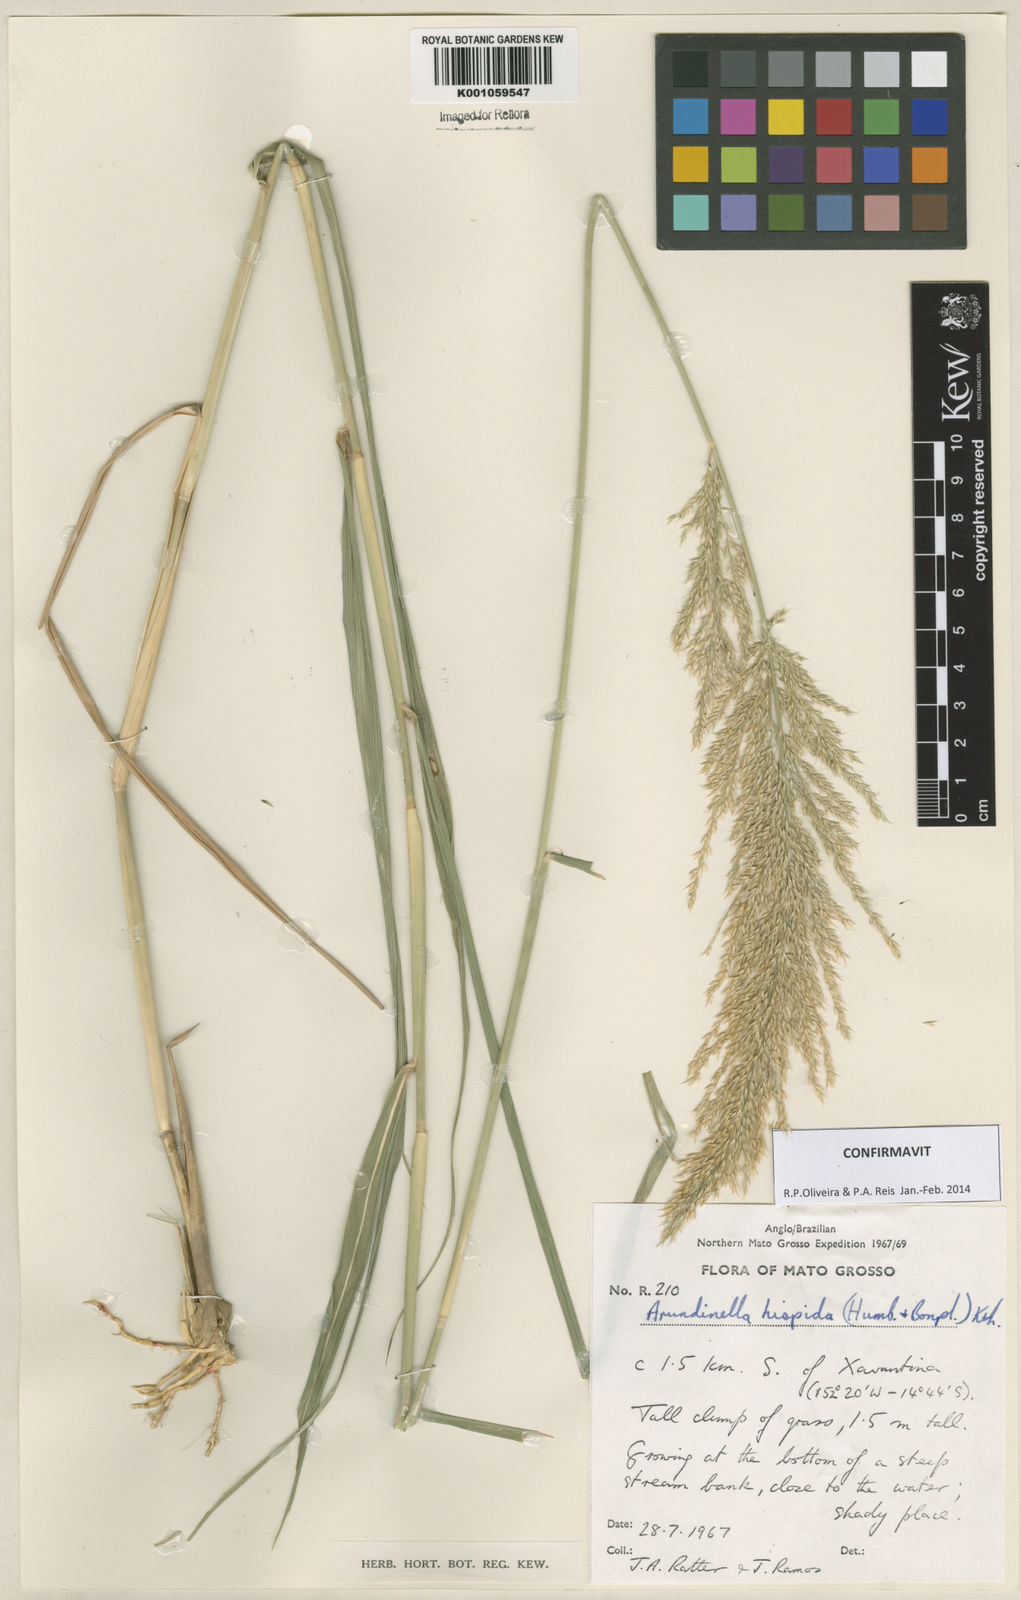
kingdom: Plantae
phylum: Tracheophyta
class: Liliopsida
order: Poales
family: Poaceae
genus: Arundinella
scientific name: Arundinella hispida
